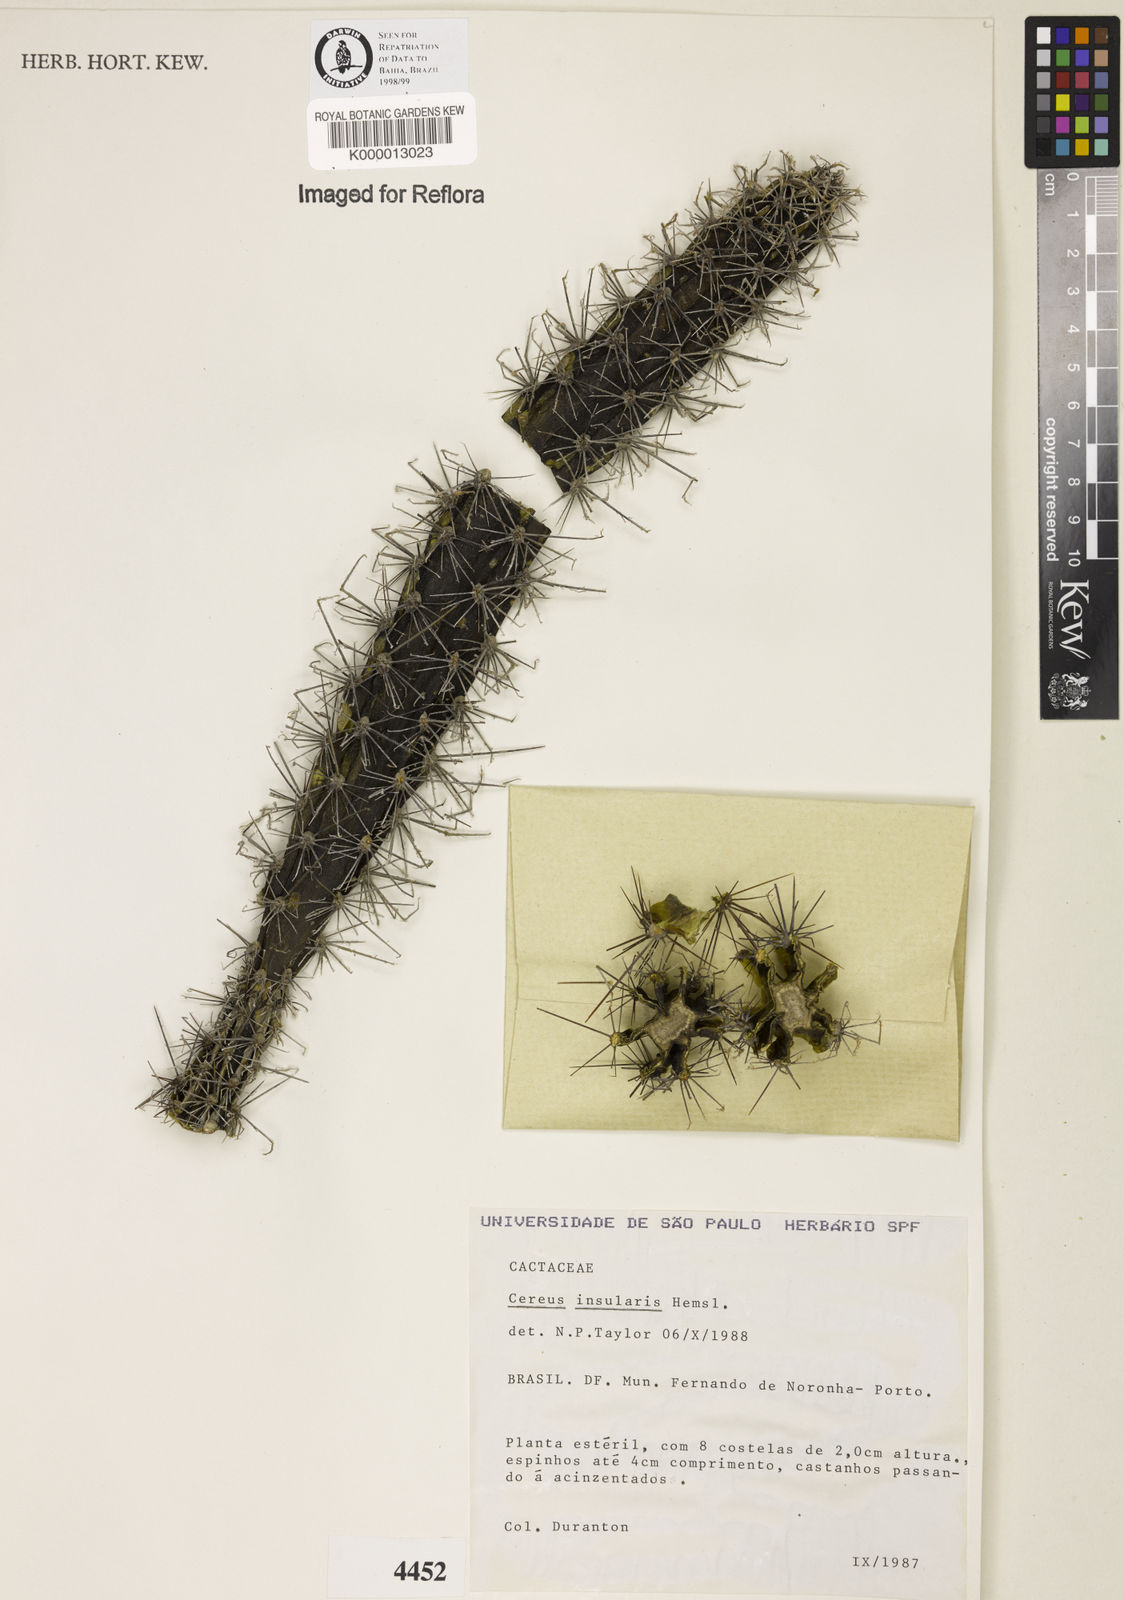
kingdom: Plantae
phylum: Tracheophyta
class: Magnoliopsida
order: Caryophyllales
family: Cactaceae
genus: Cereus
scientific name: Cereus insularis
